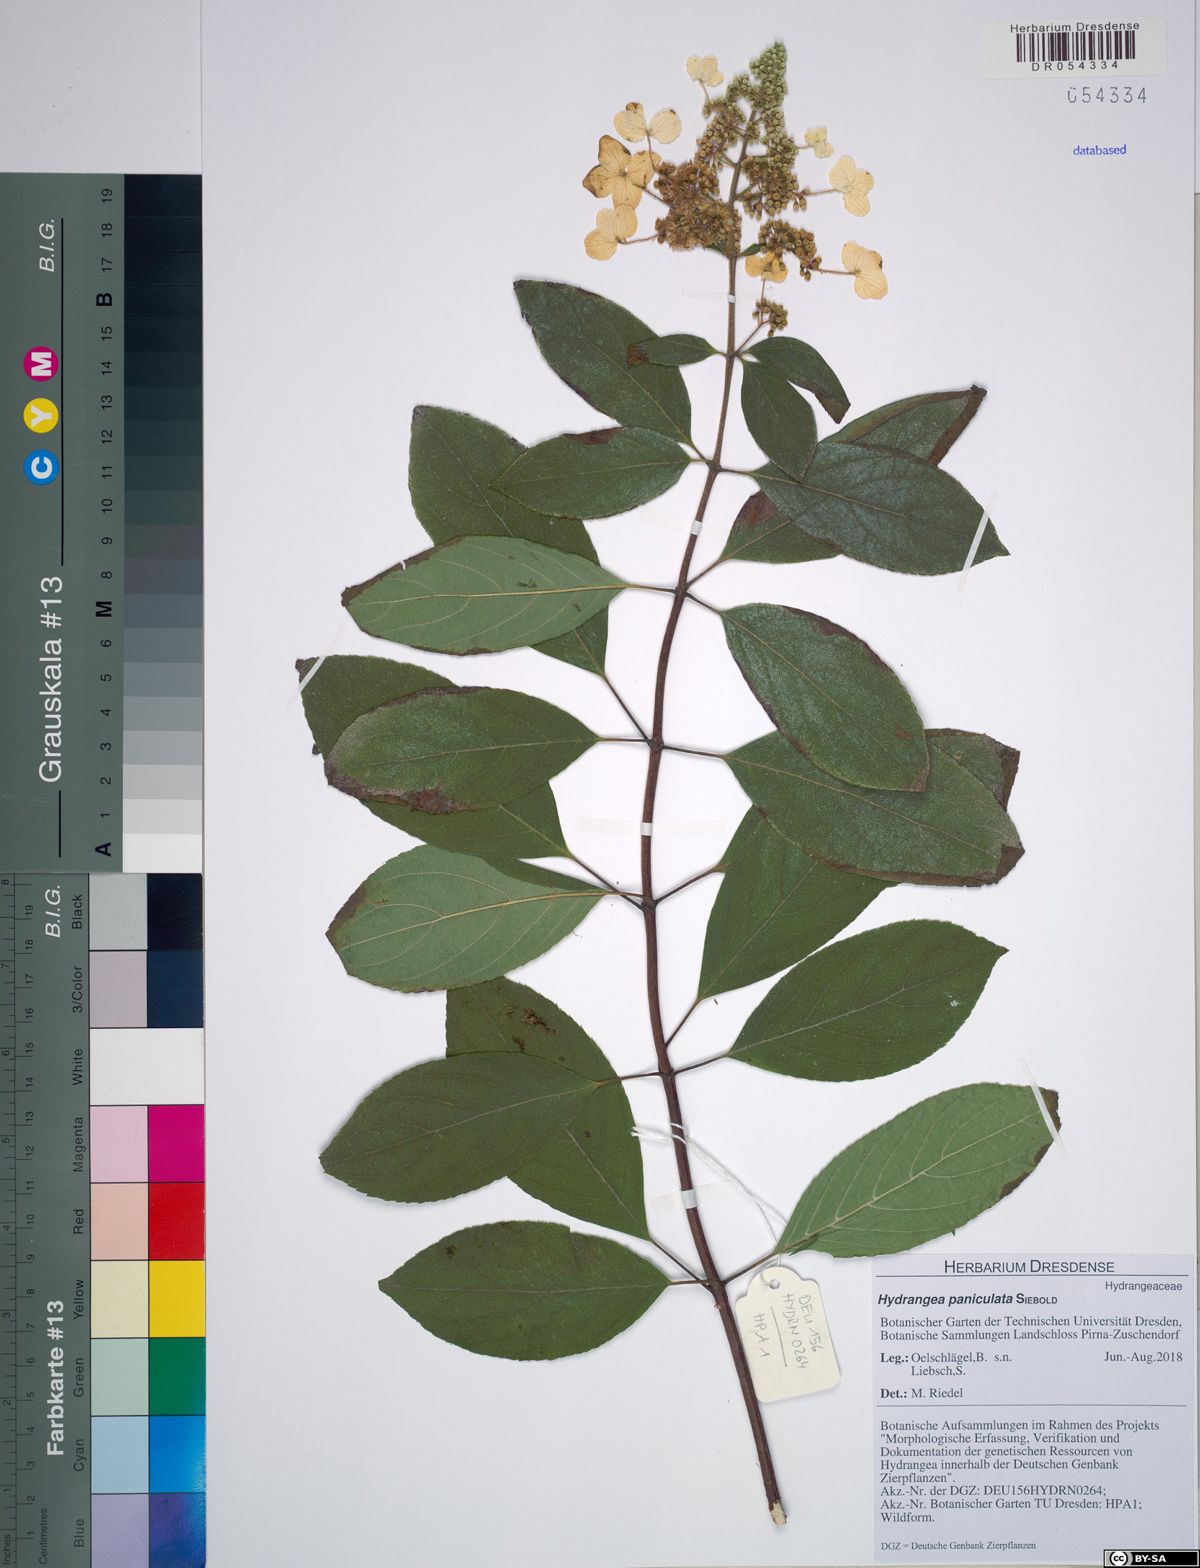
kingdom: Plantae
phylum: Tracheophyta
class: Magnoliopsida
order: Cornales
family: Hydrangeaceae
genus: Hydrangea
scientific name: Hydrangea paniculata
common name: Panicled hydrangea
